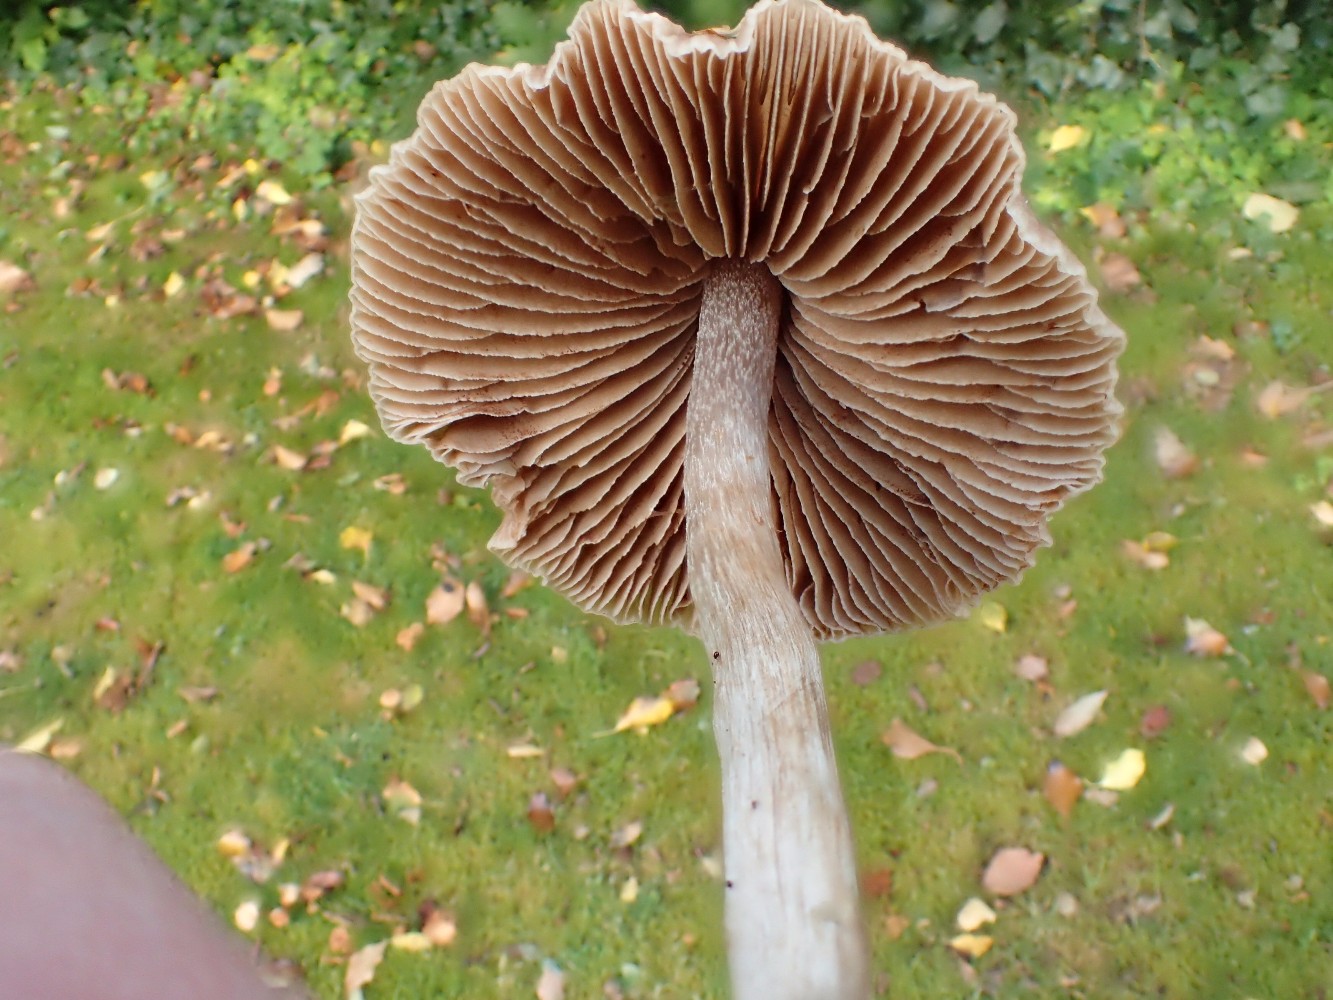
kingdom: Fungi
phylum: Basidiomycota
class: Agaricomycetes
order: Agaricales
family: Hymenogastraceae
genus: Naucoria
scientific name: Naucoria bohemica
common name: birke-knaphat
